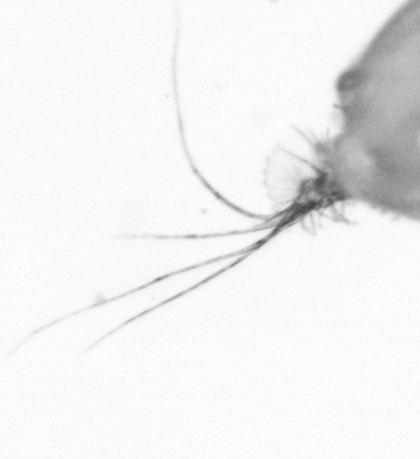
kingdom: Animalia
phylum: Arthropoda
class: Copepoda
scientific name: Copepoda
